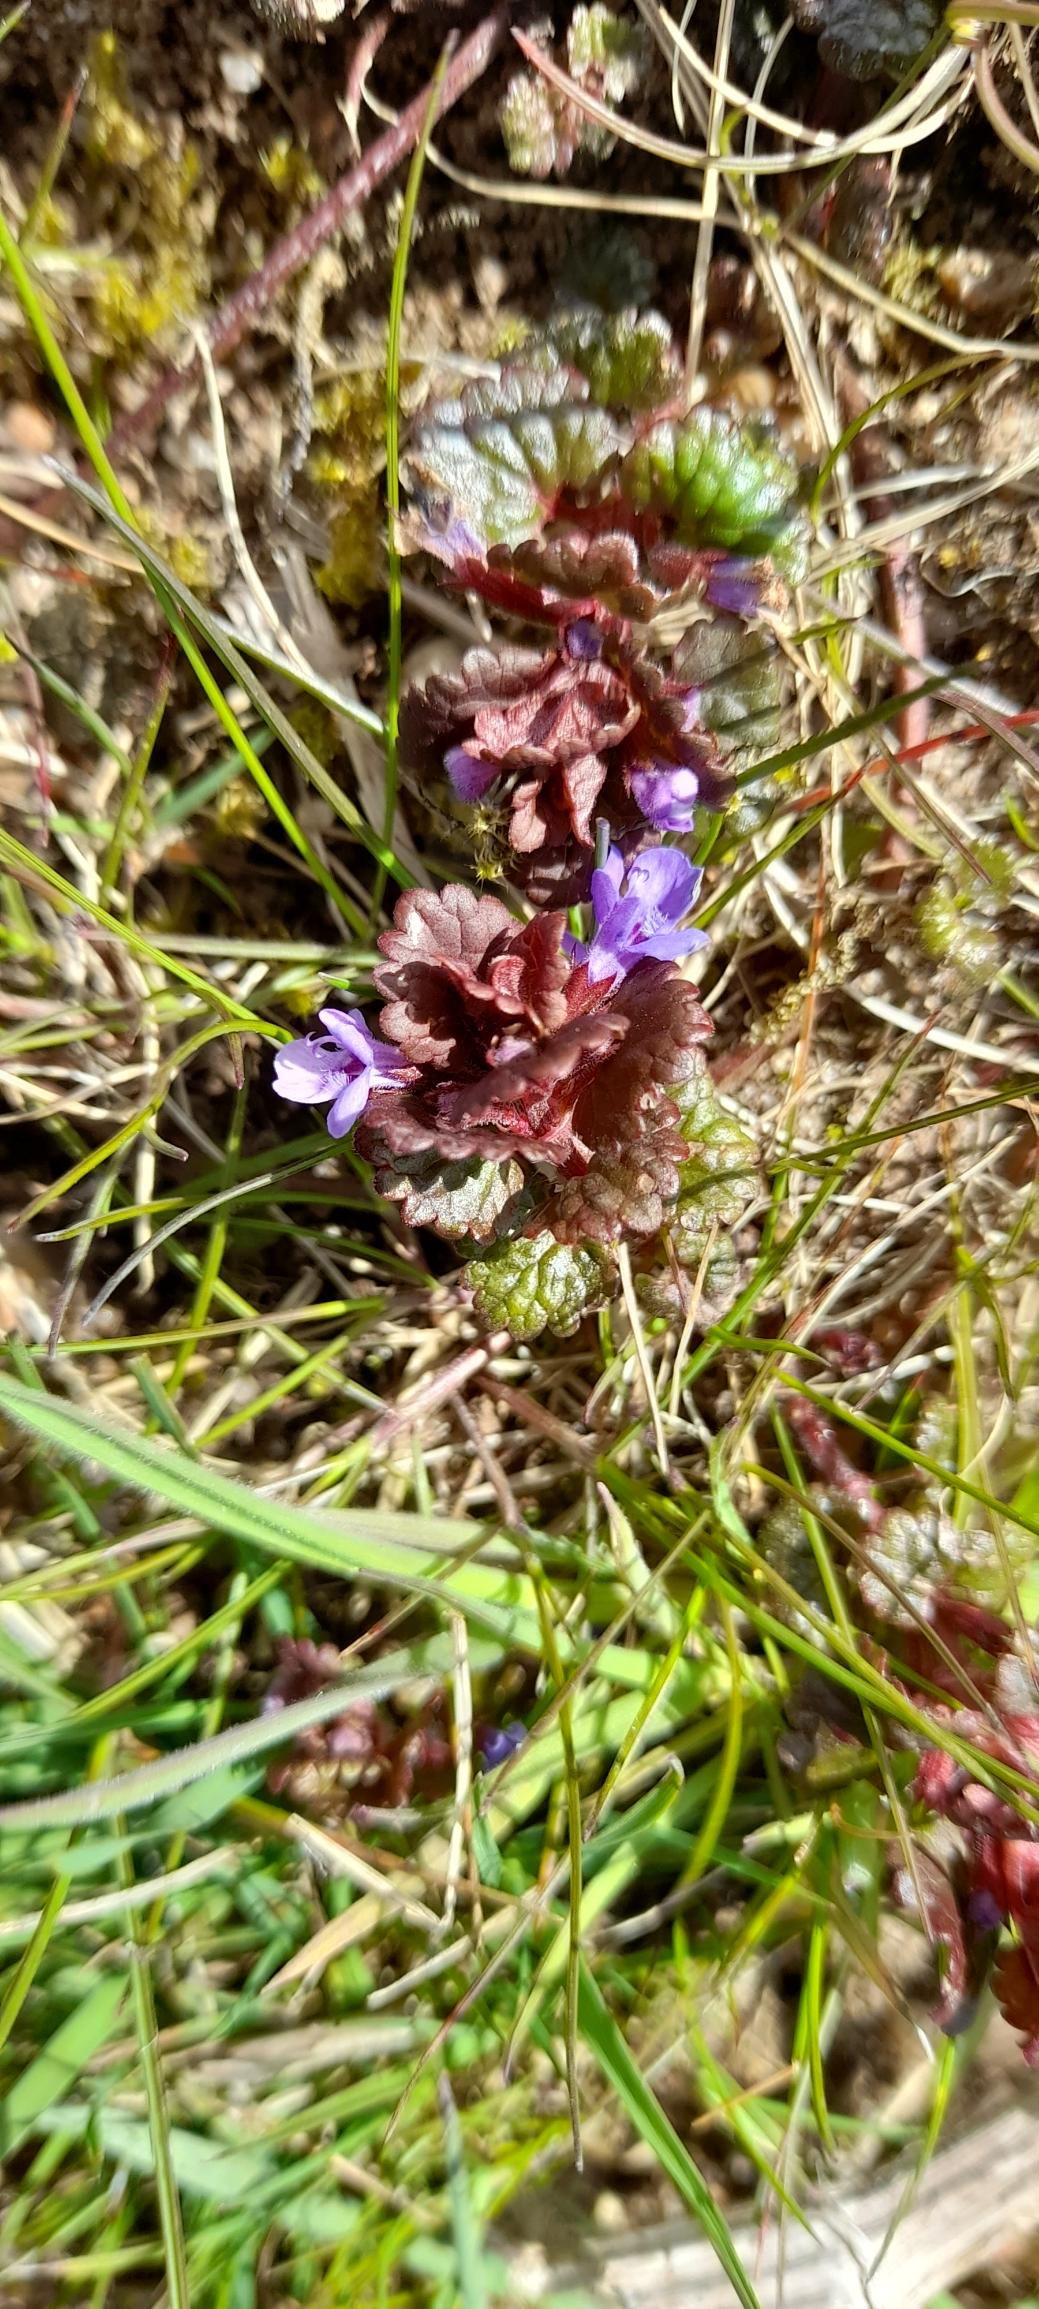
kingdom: Plantae
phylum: Tracheophyta
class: Magnoliopsida
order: Lamiales
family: Lamiaceae
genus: Glechoma
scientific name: Glechoma hederacea
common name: Korsknap
